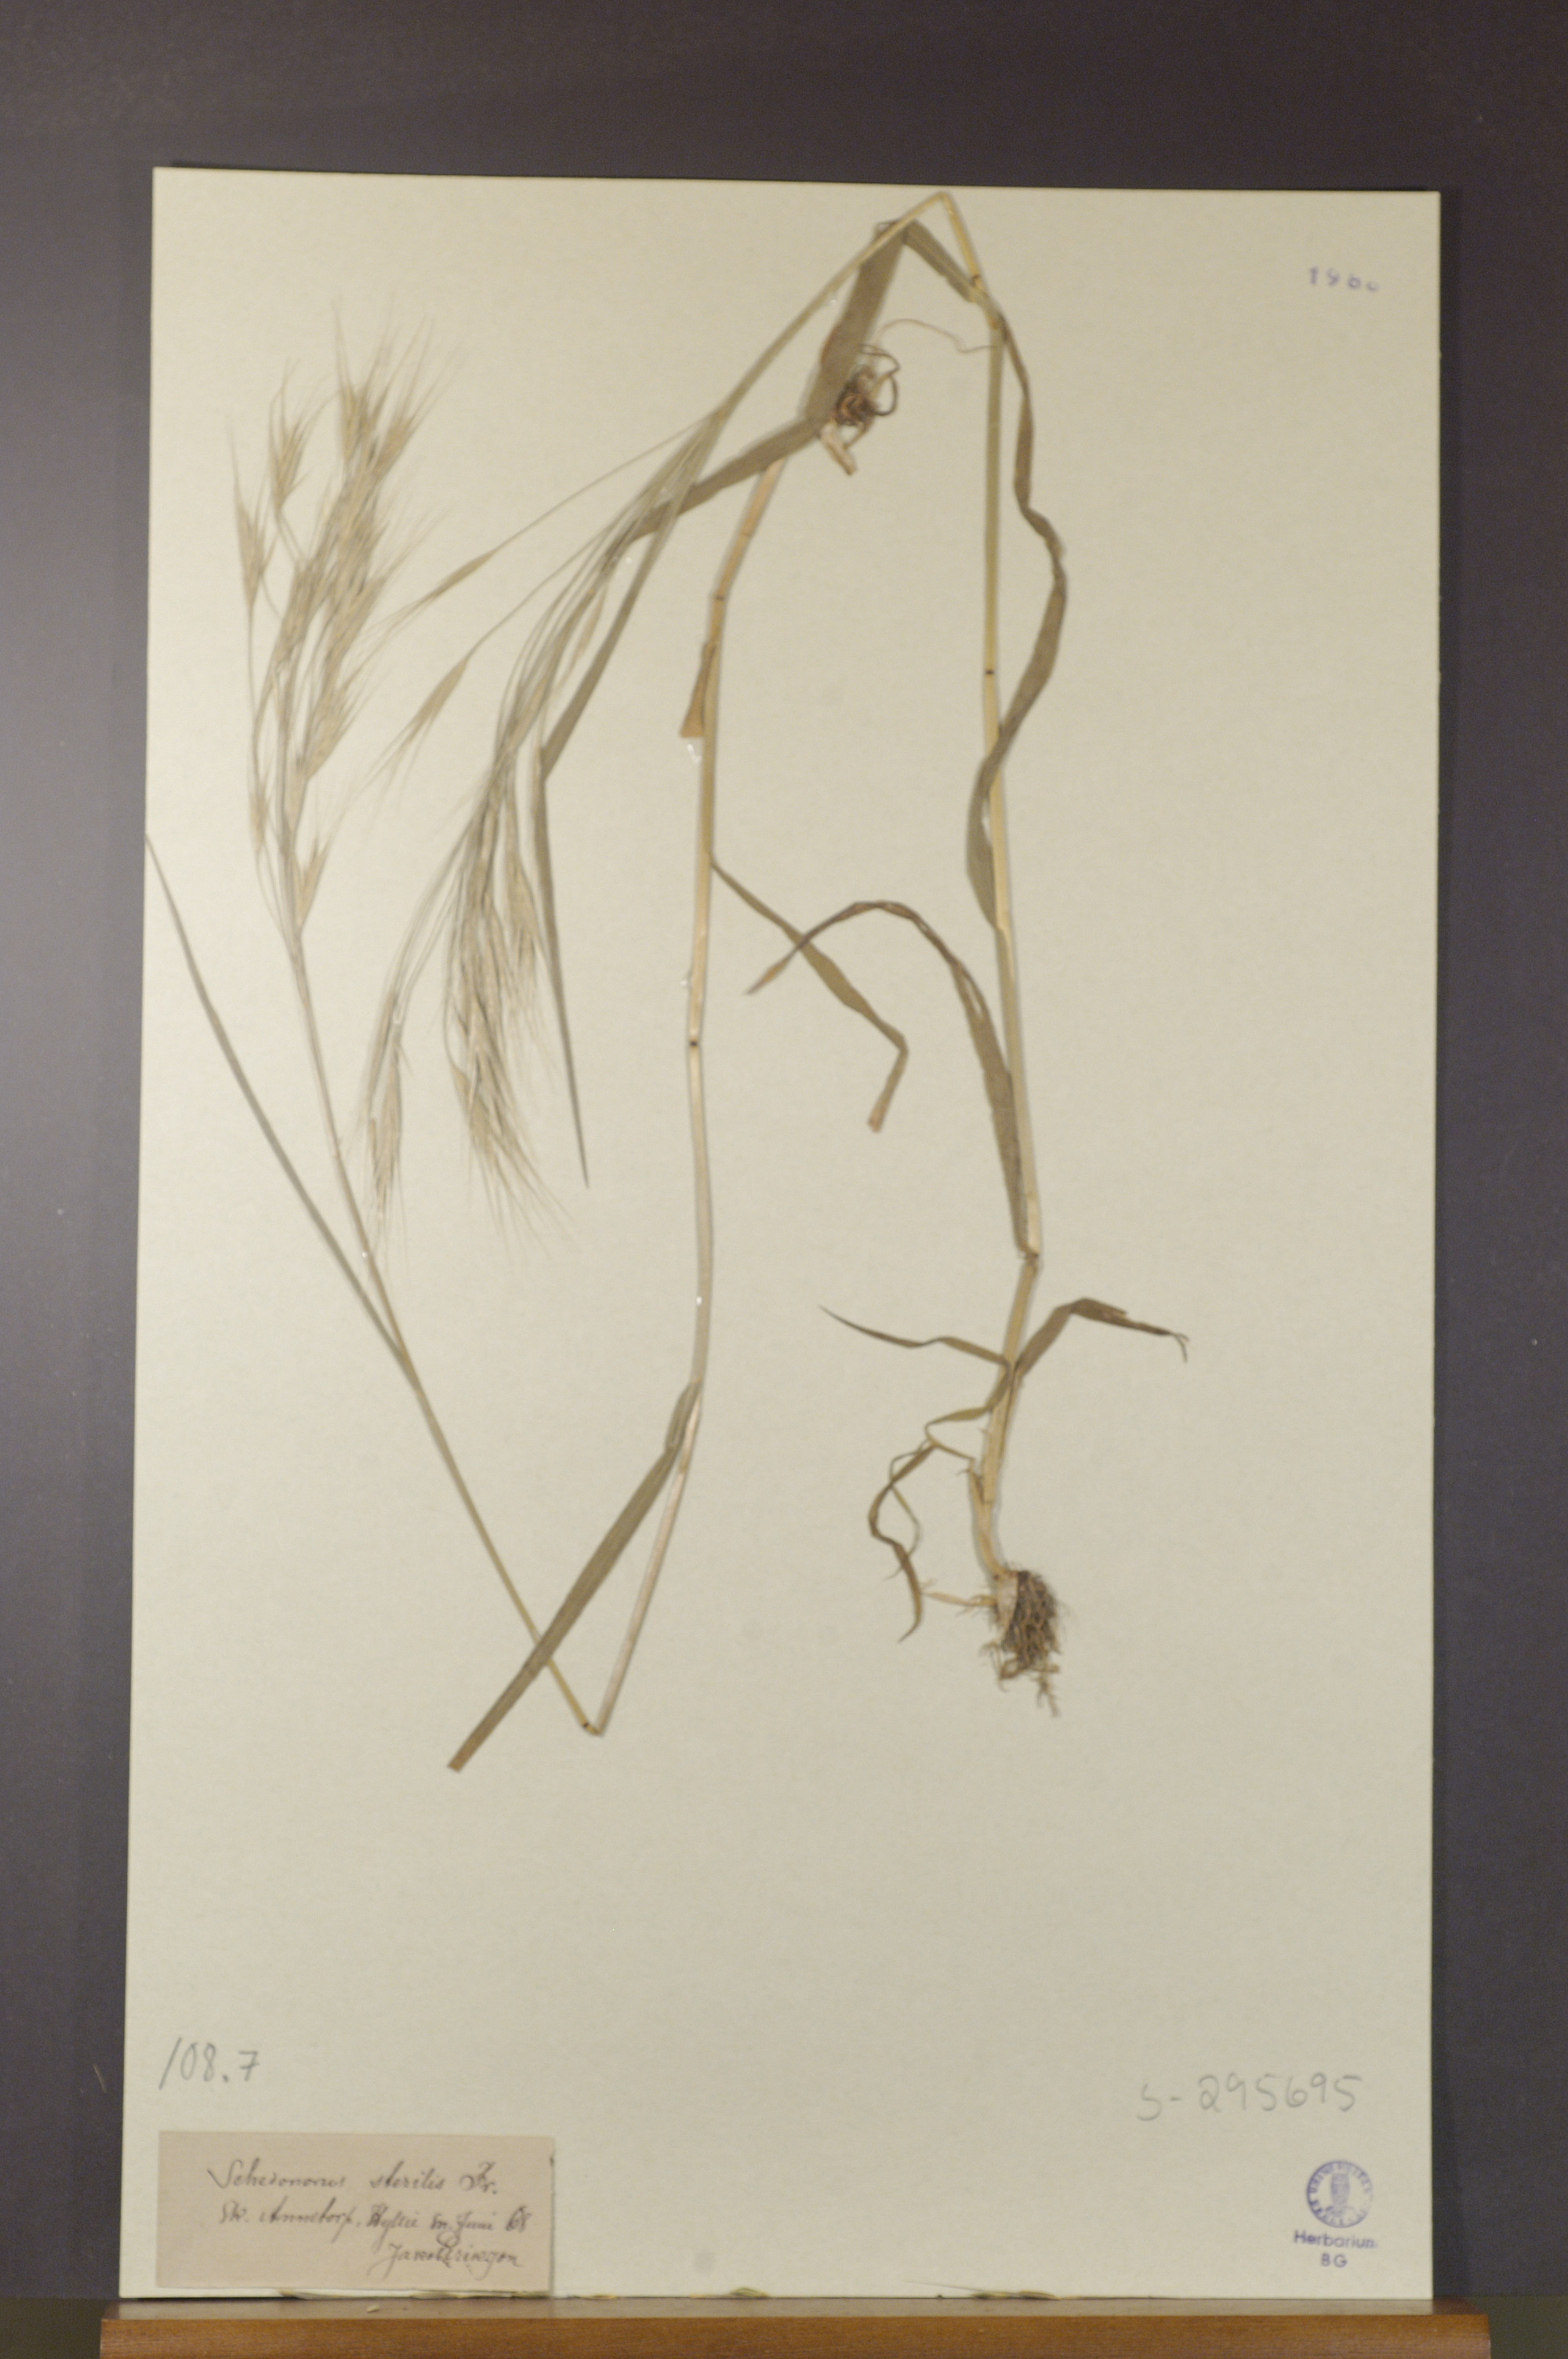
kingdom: Plantae
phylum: Tracheophyta
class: Liliopsida
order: Poales
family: Poaceae
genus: Bromus
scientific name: Bromus sterilis
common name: Poverty brome
